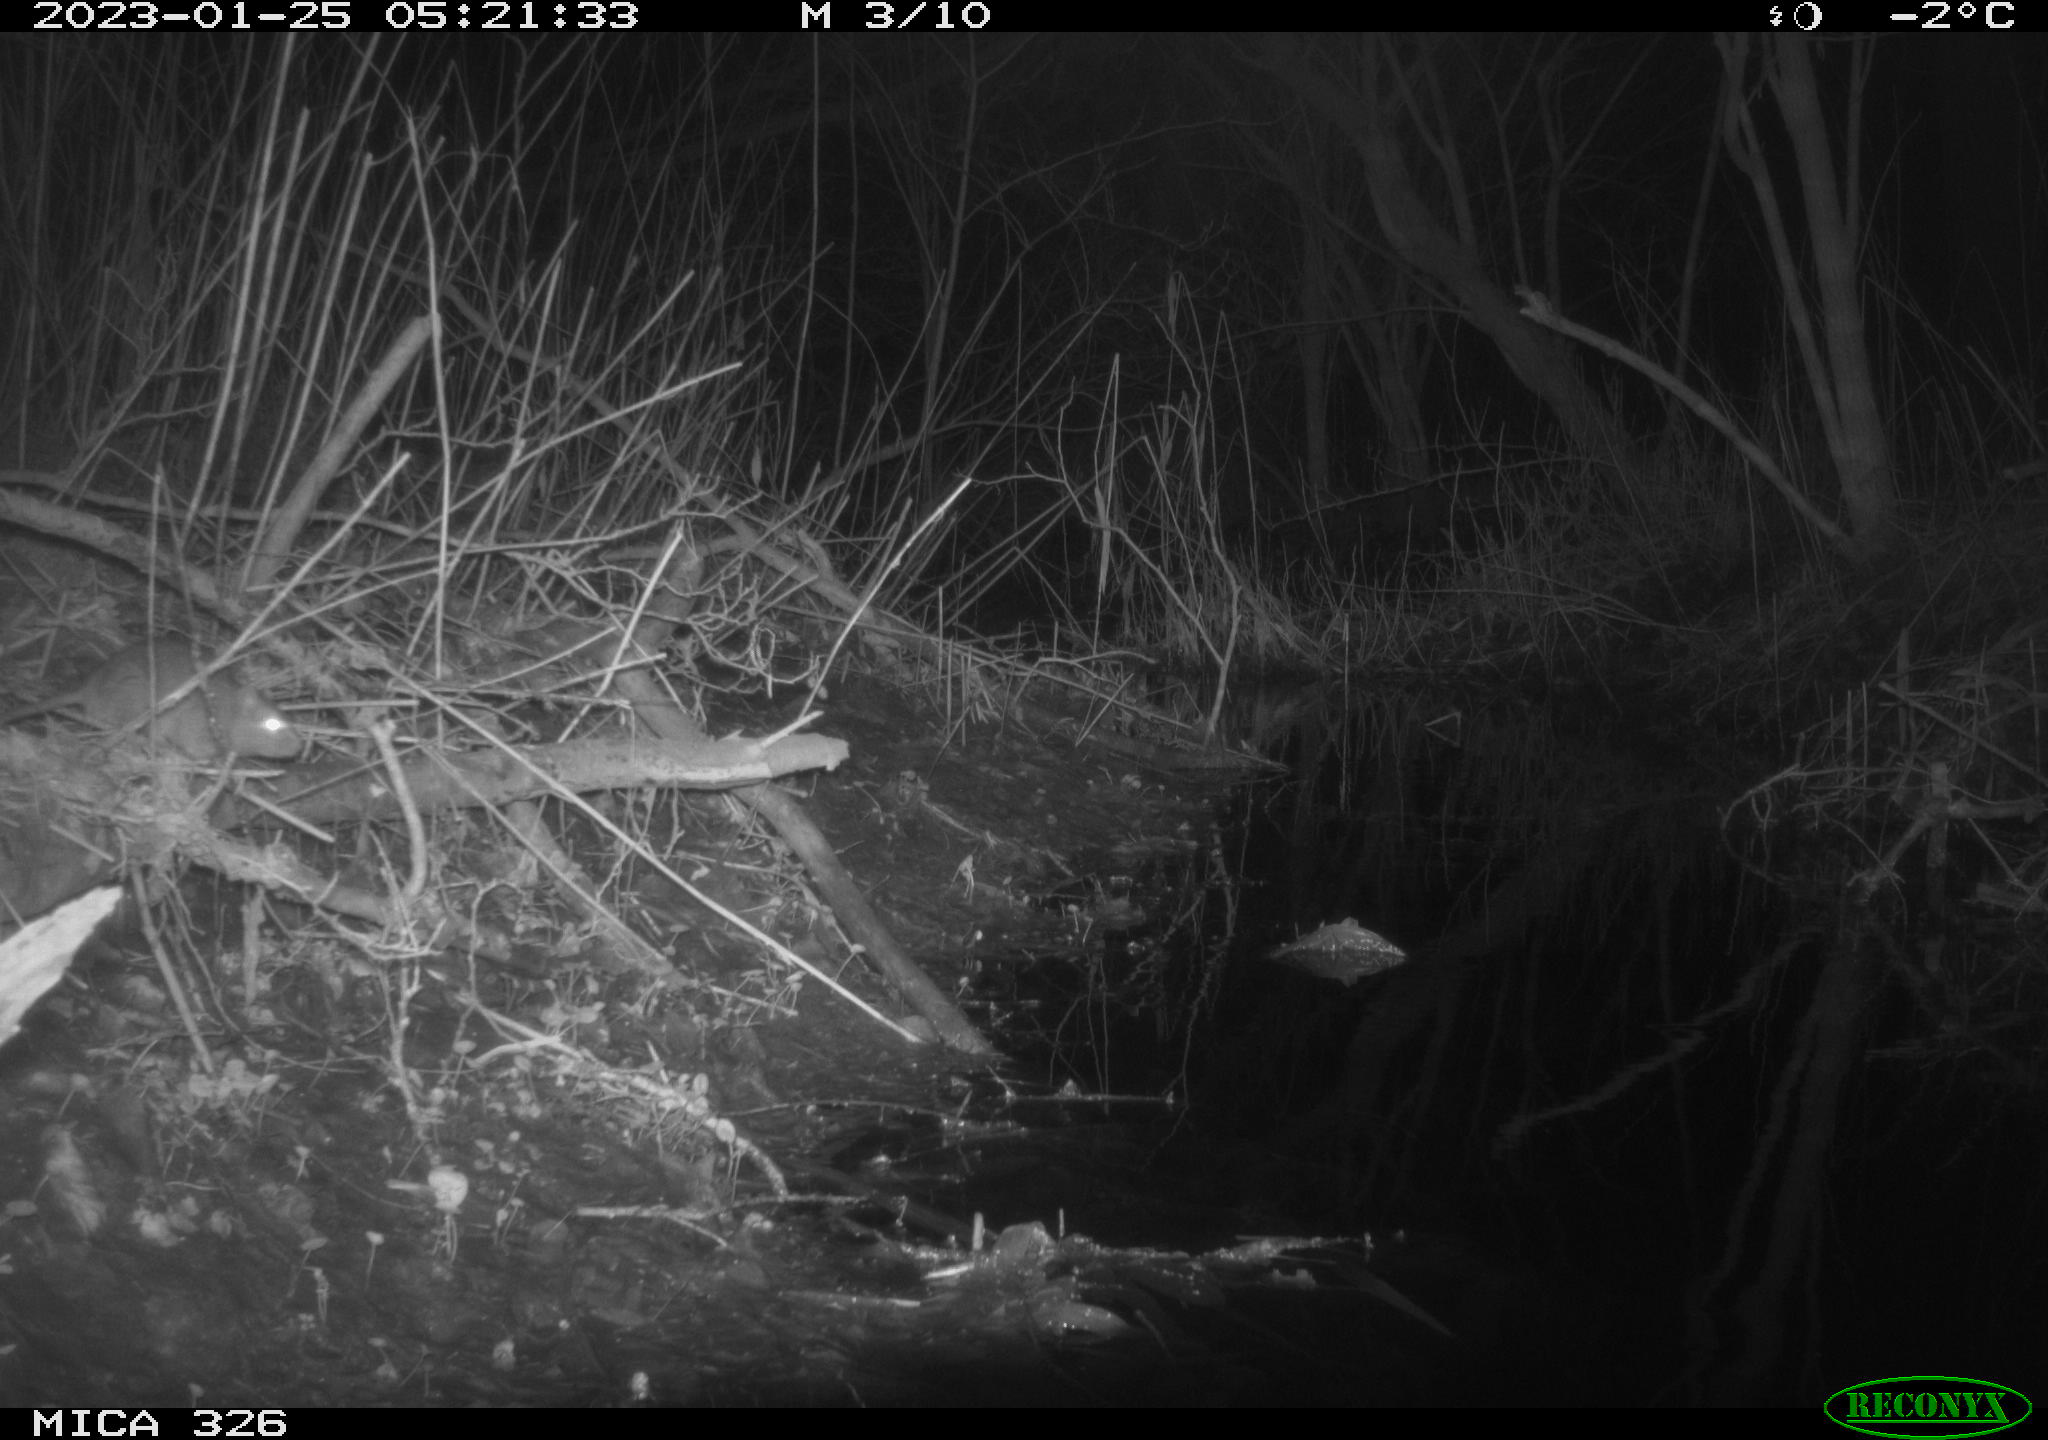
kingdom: Animalia
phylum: Chordata
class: Mammalia
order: Rodentia
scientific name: Rodentia
